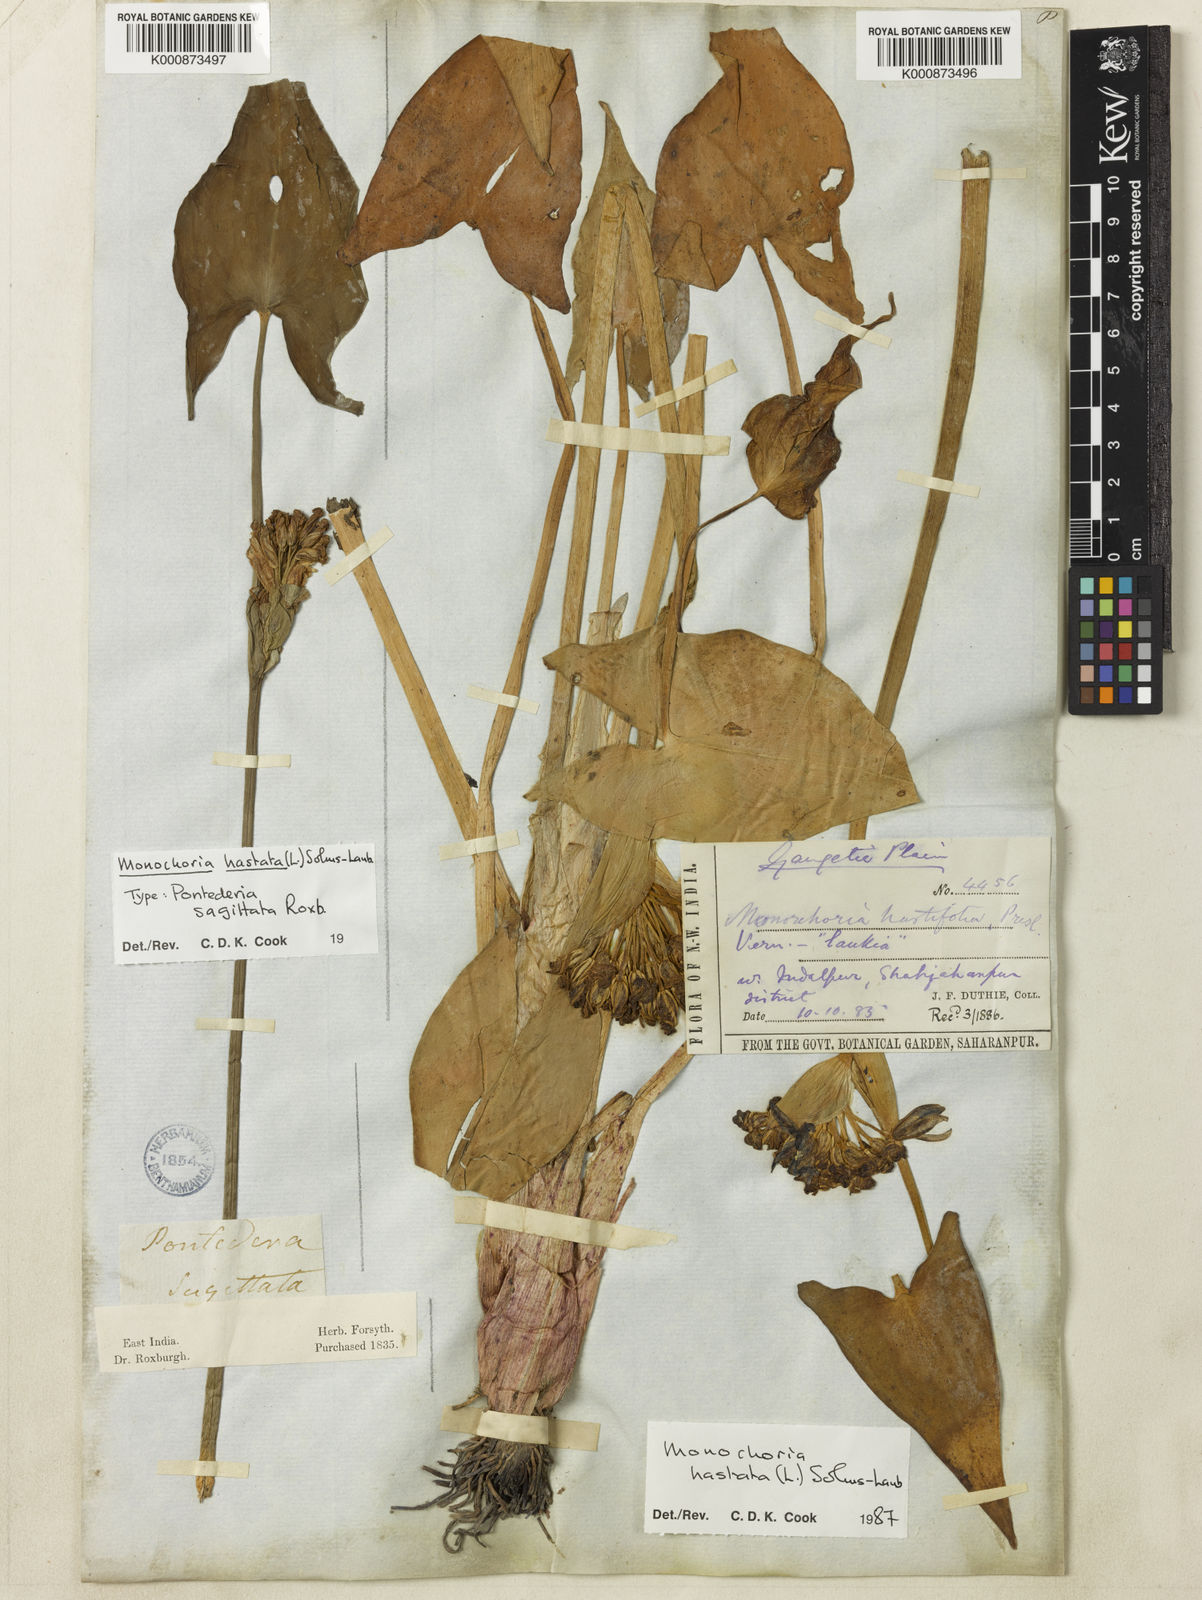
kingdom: Plantae
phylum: Tracheophyta
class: Liliopsida
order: Commelinales
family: Pontederiaceae
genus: Pontederia
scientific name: Pontederia hastata
